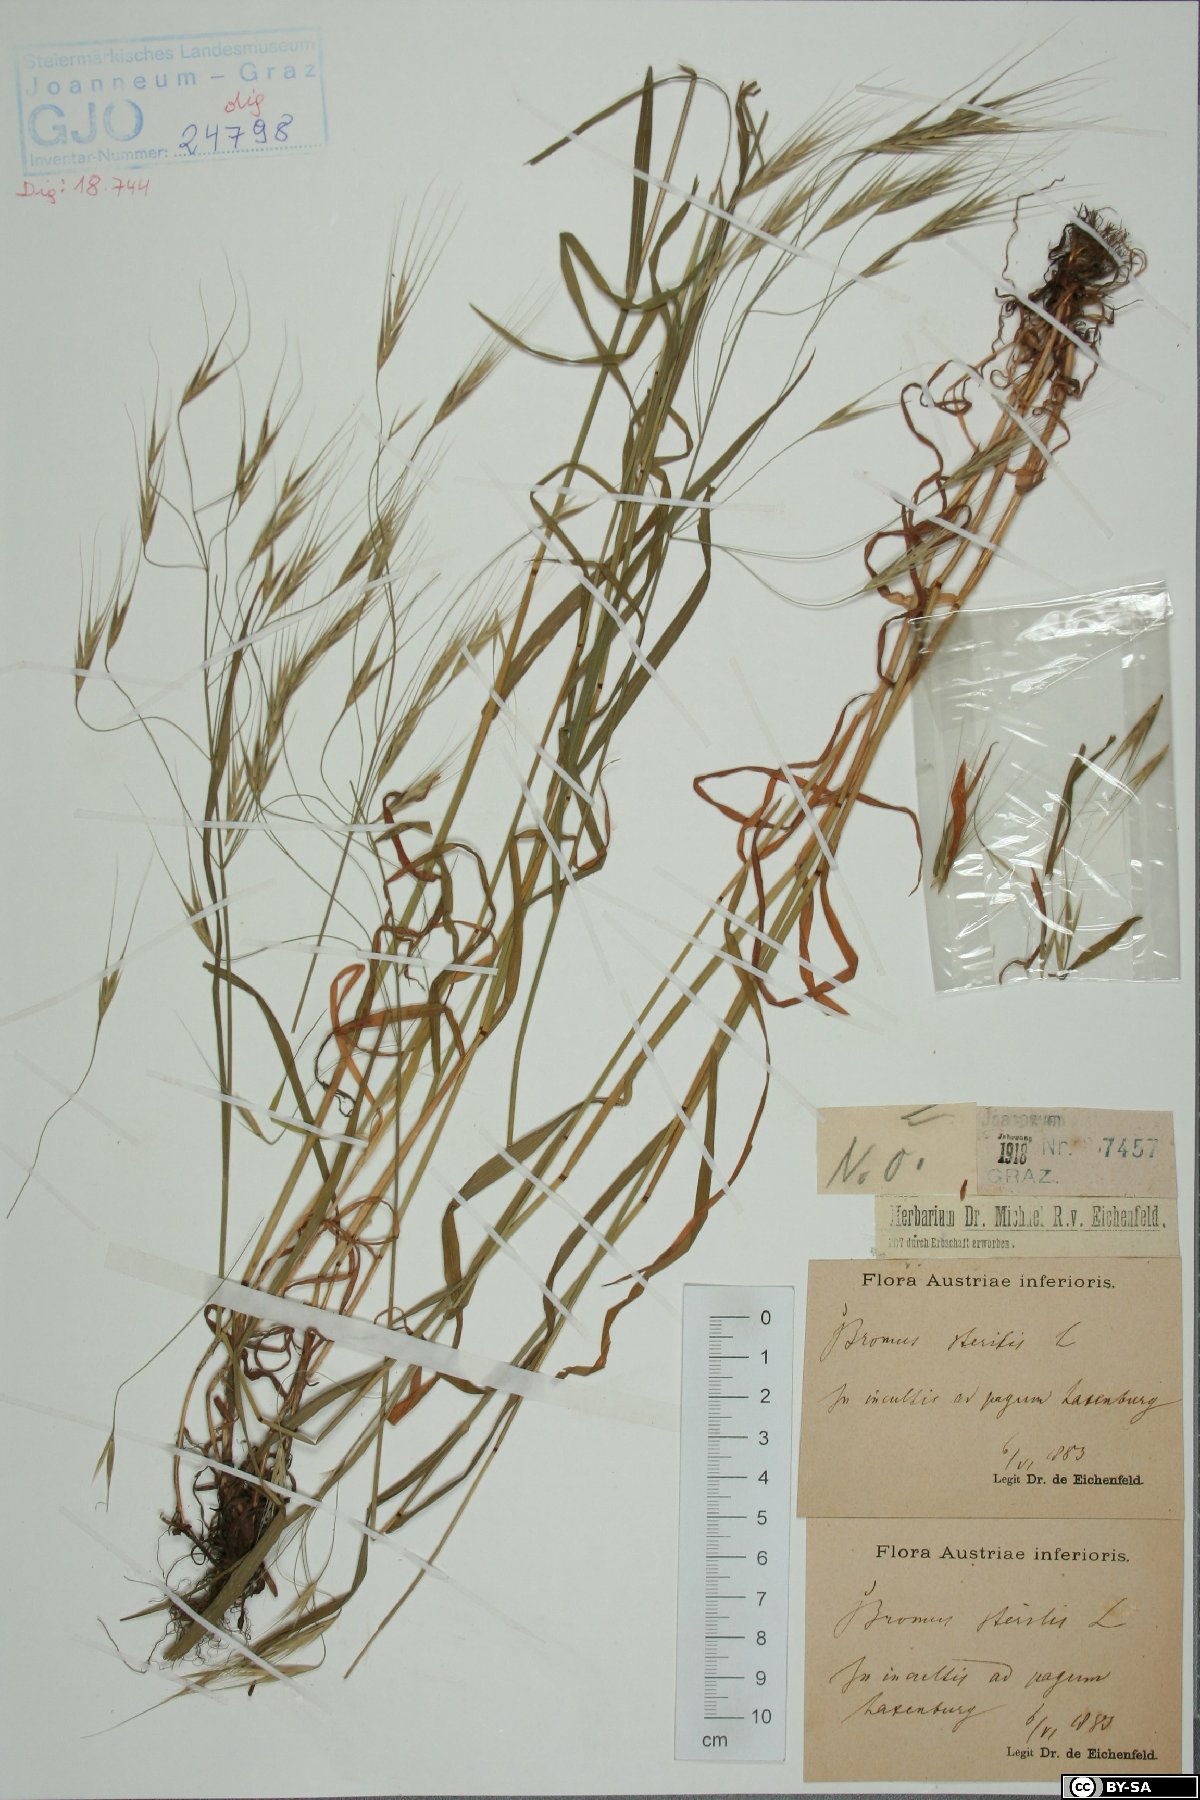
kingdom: Plantae
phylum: Tracheophyta
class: Liliopsida
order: Poales
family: Poaceae
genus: Bromus
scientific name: Bromus sterilis
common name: Poverty brome
